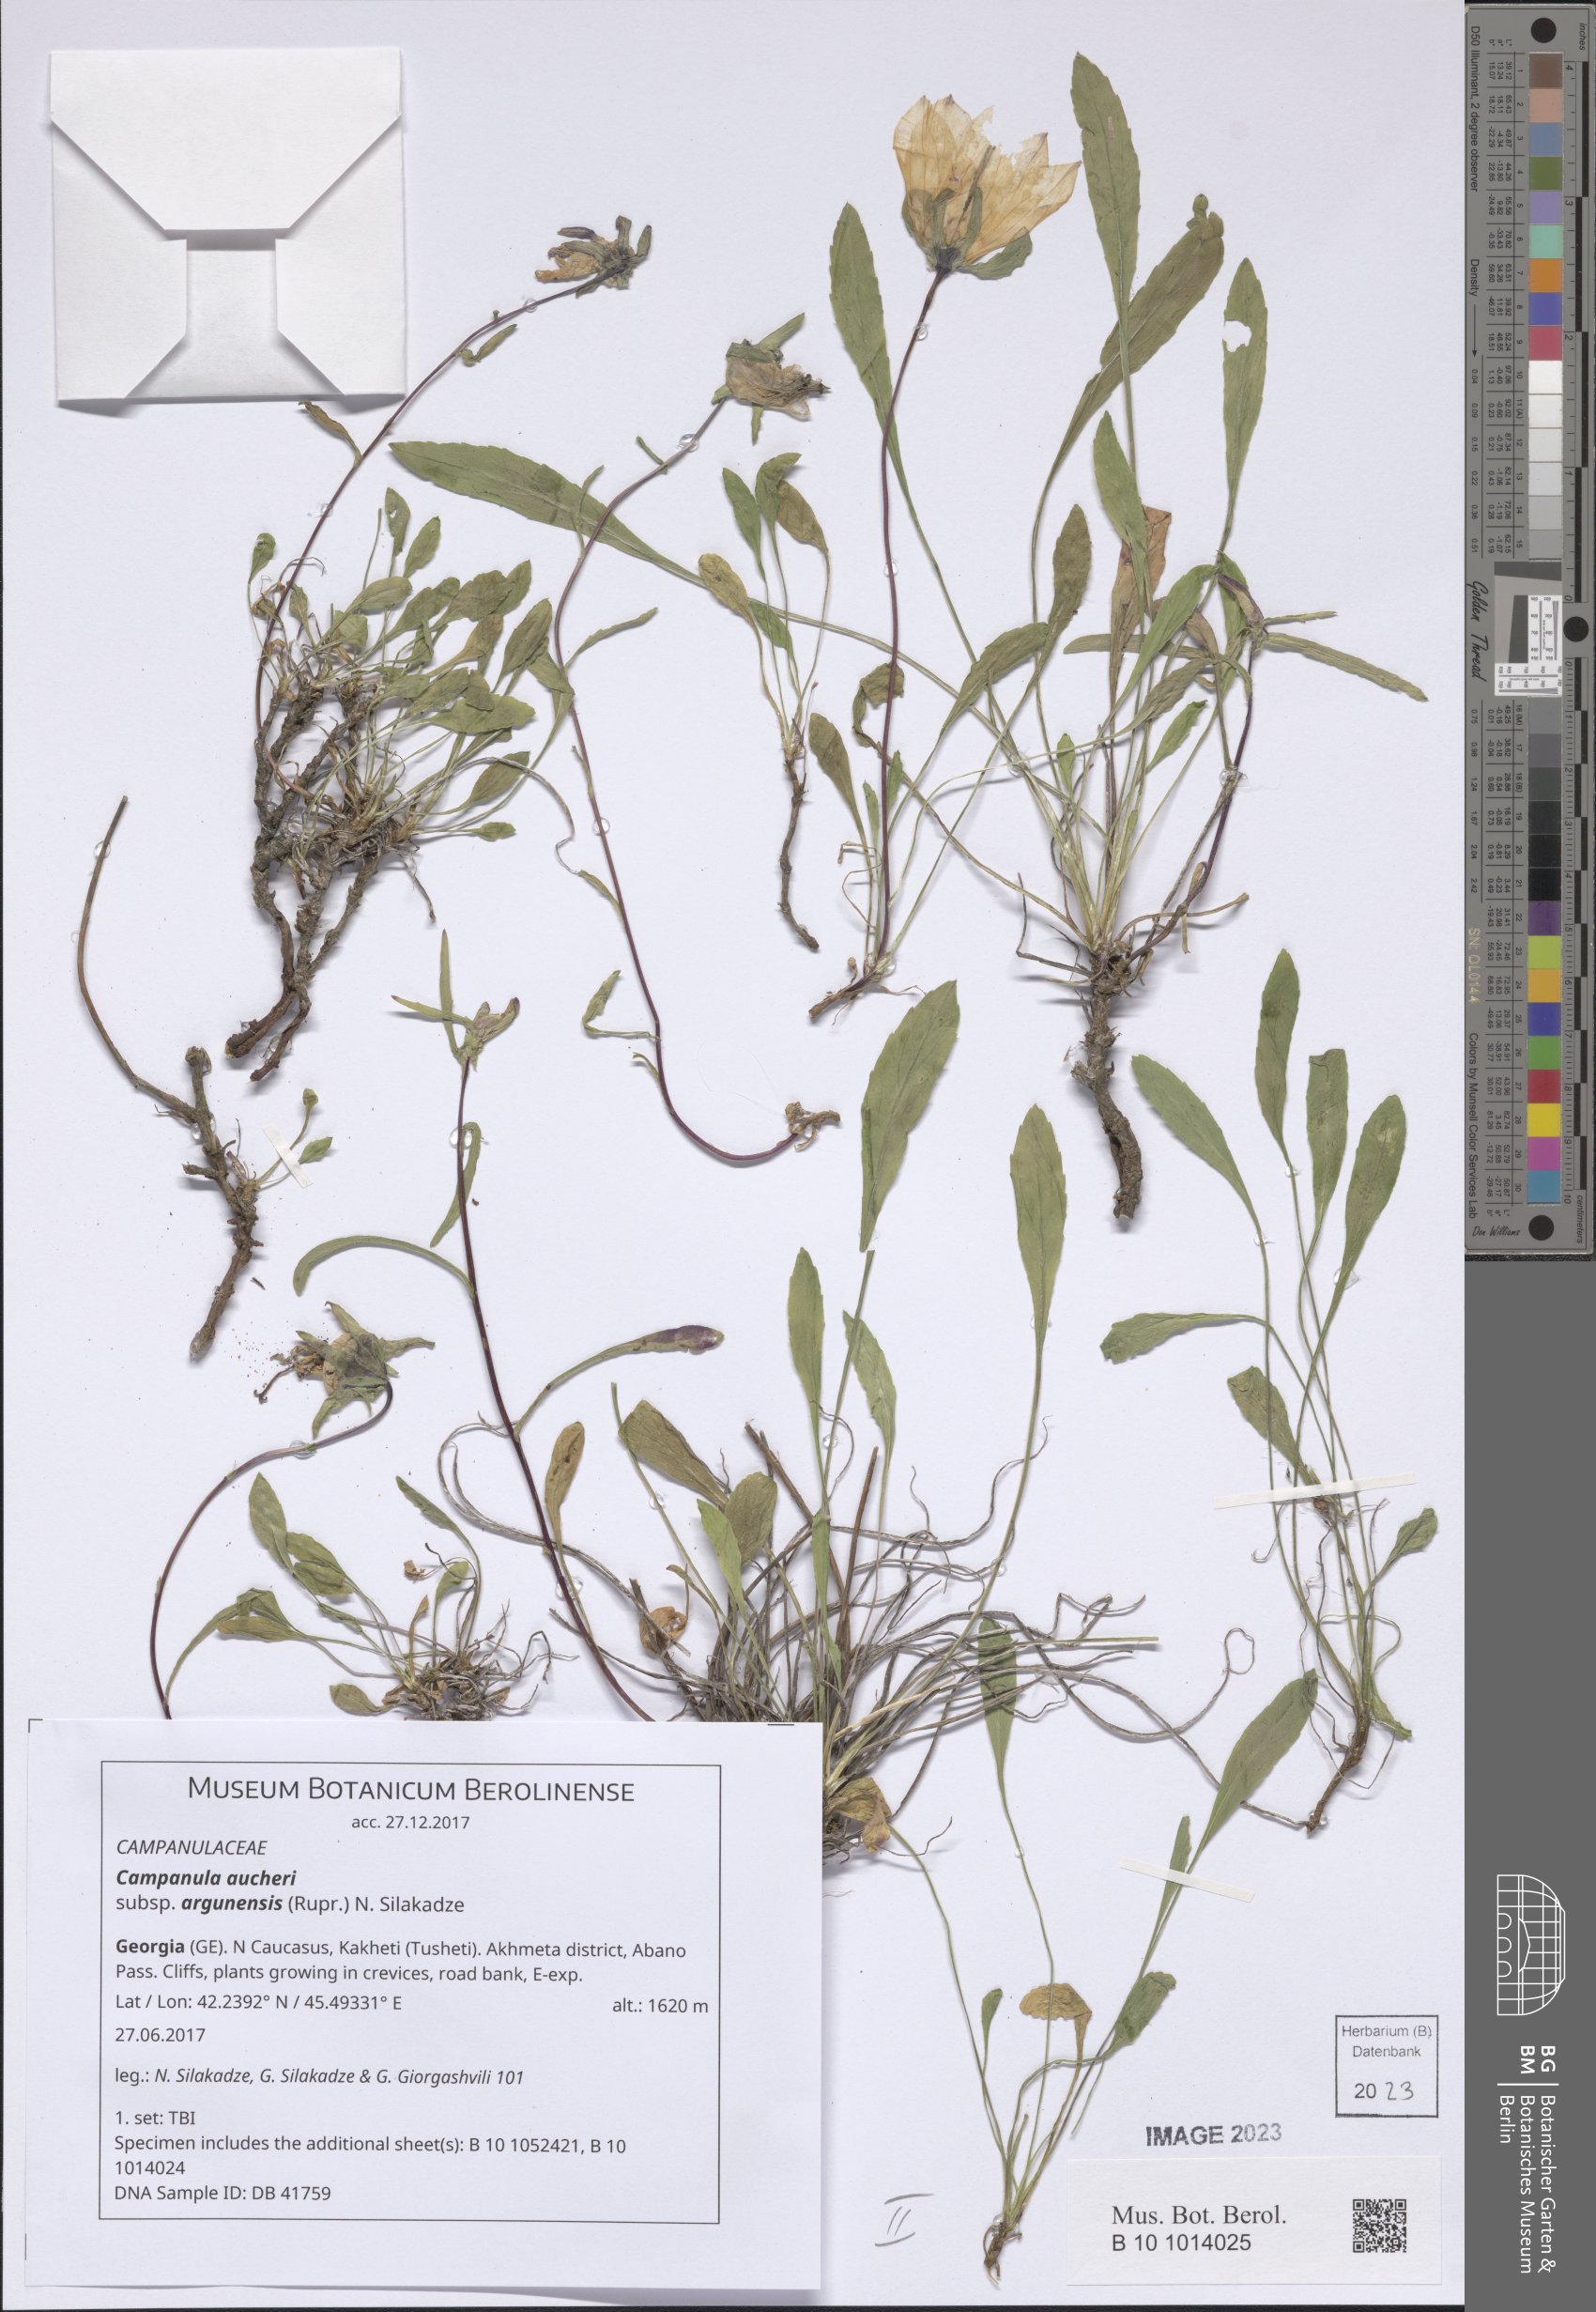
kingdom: Plantae
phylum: Tracheophyta
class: Magnoliopsida
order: Asterales
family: Campanulaceae
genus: Campanula
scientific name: Campanula saxifraga
